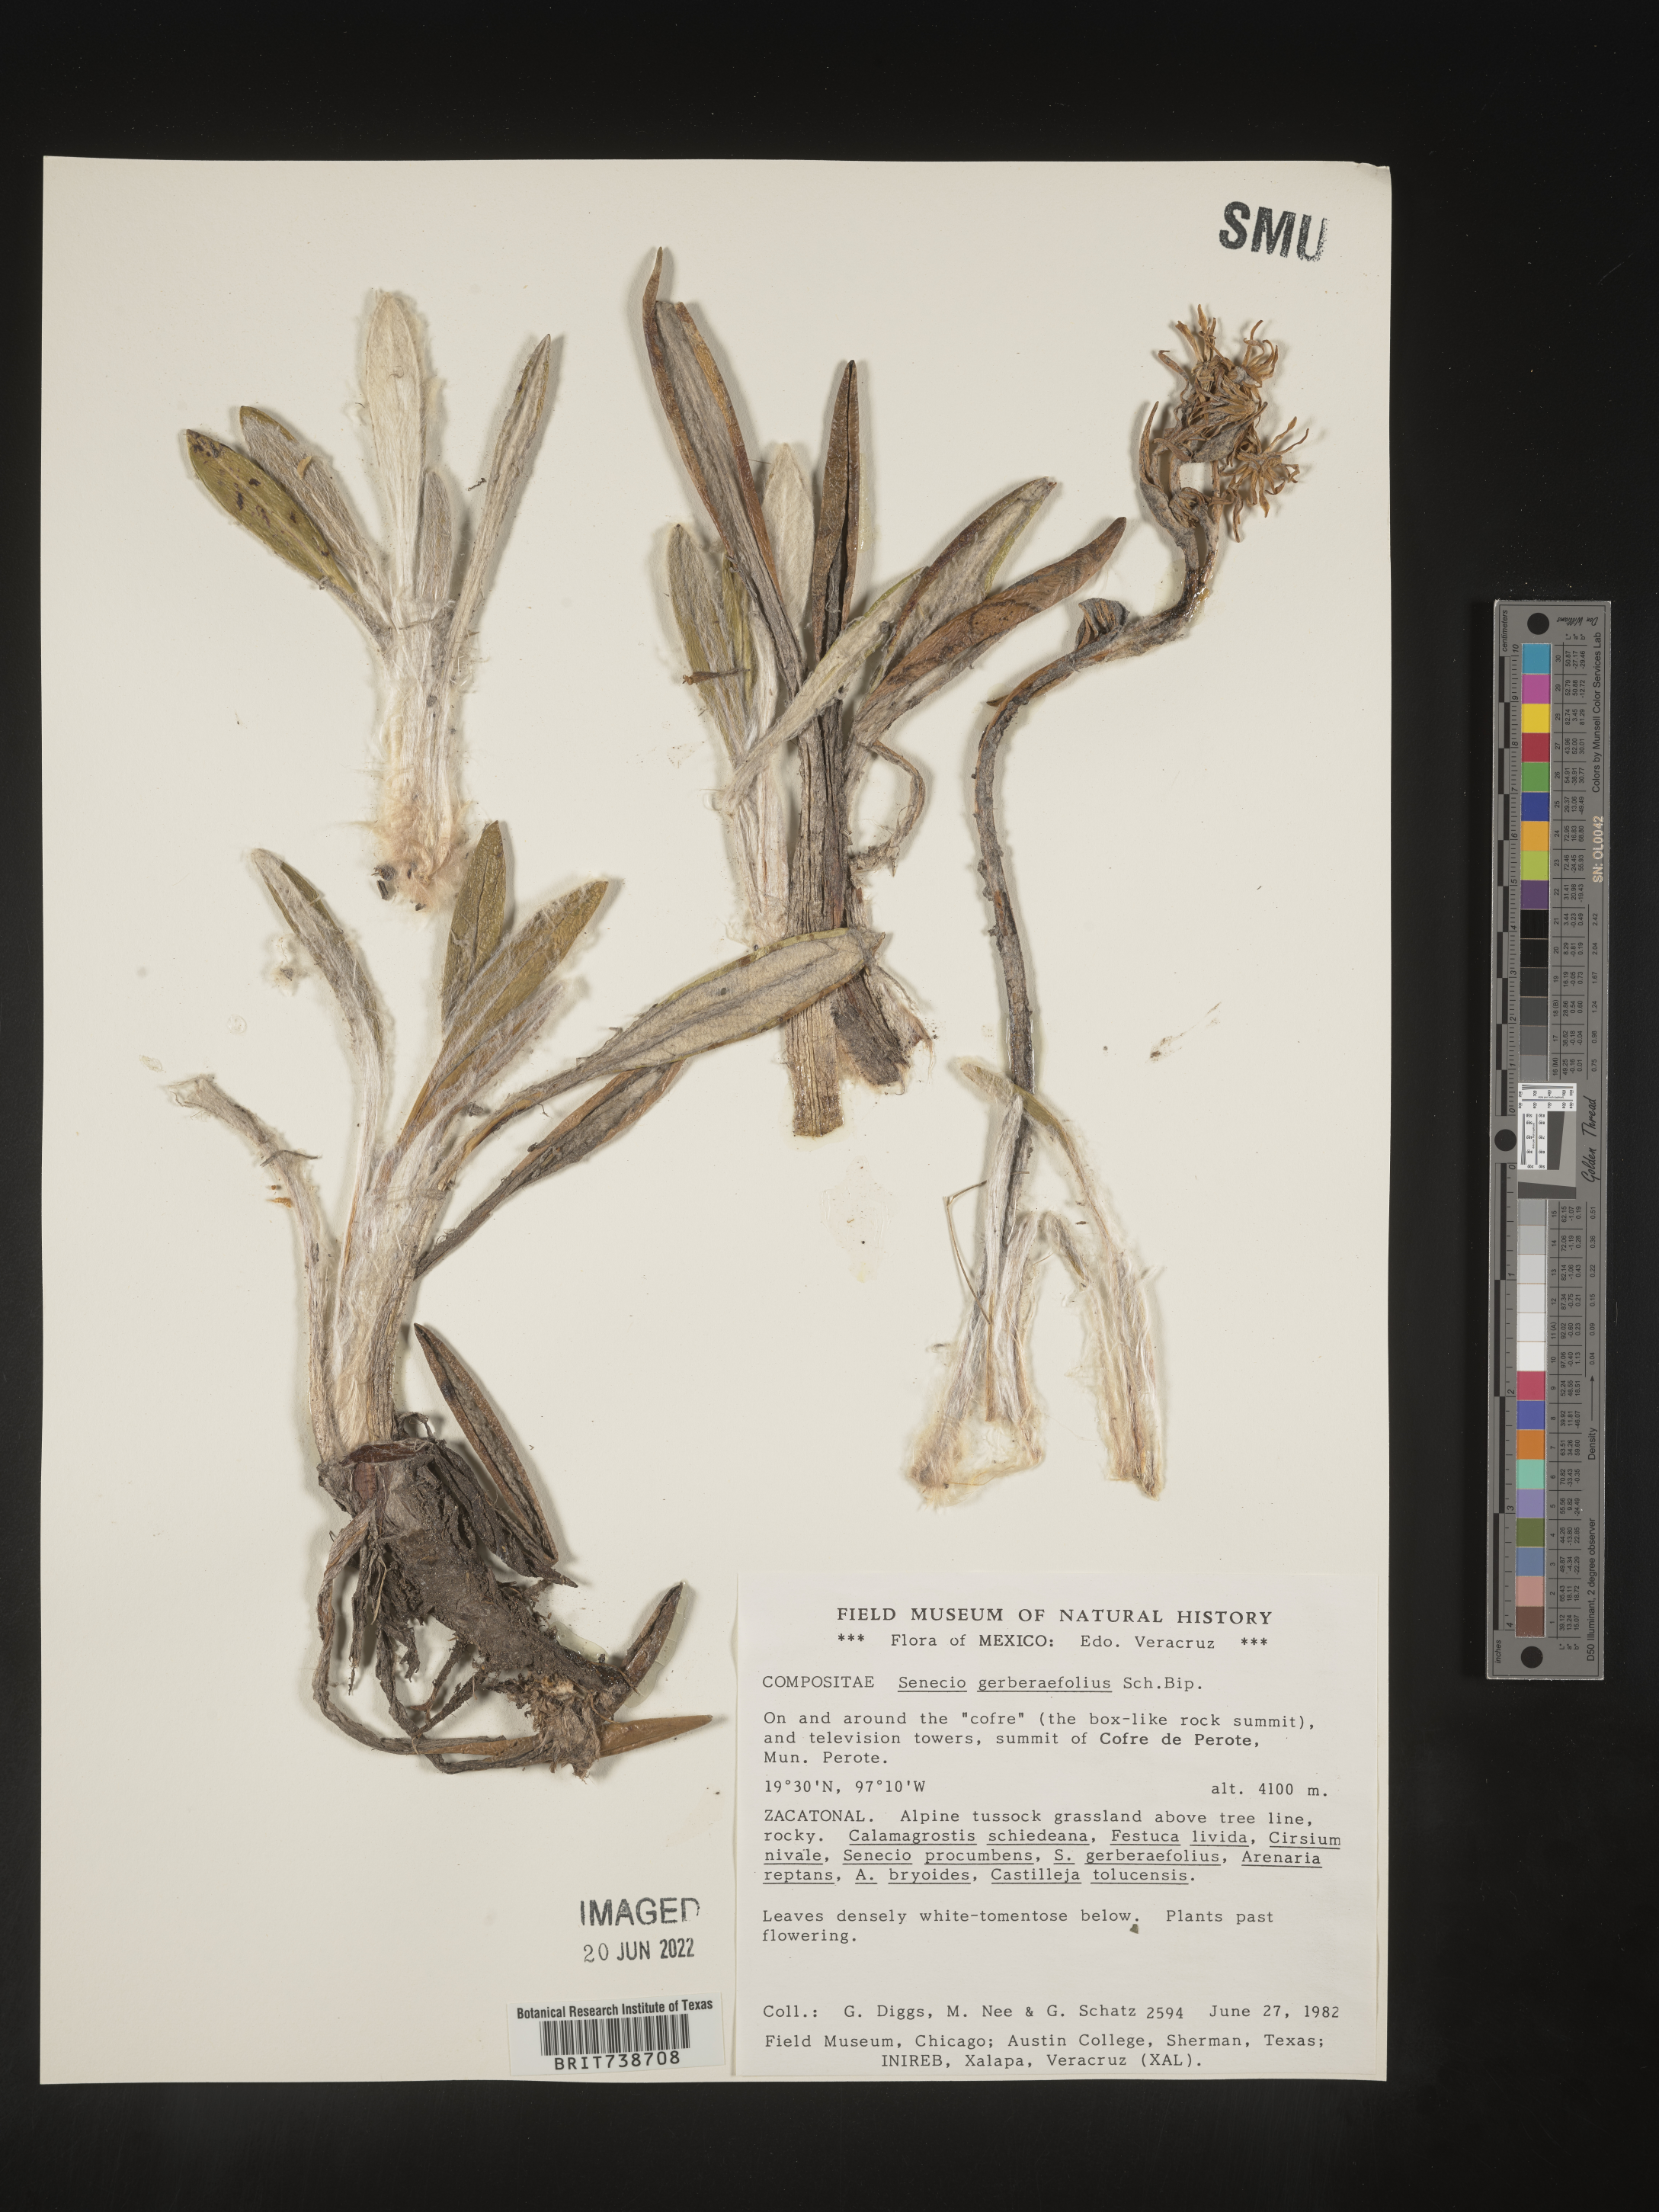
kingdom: Plantae
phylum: Tracheophyta
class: Magnoliopsida
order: Asterales
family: Asteraceae
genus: Robinsonecio
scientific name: Robinsonecio
